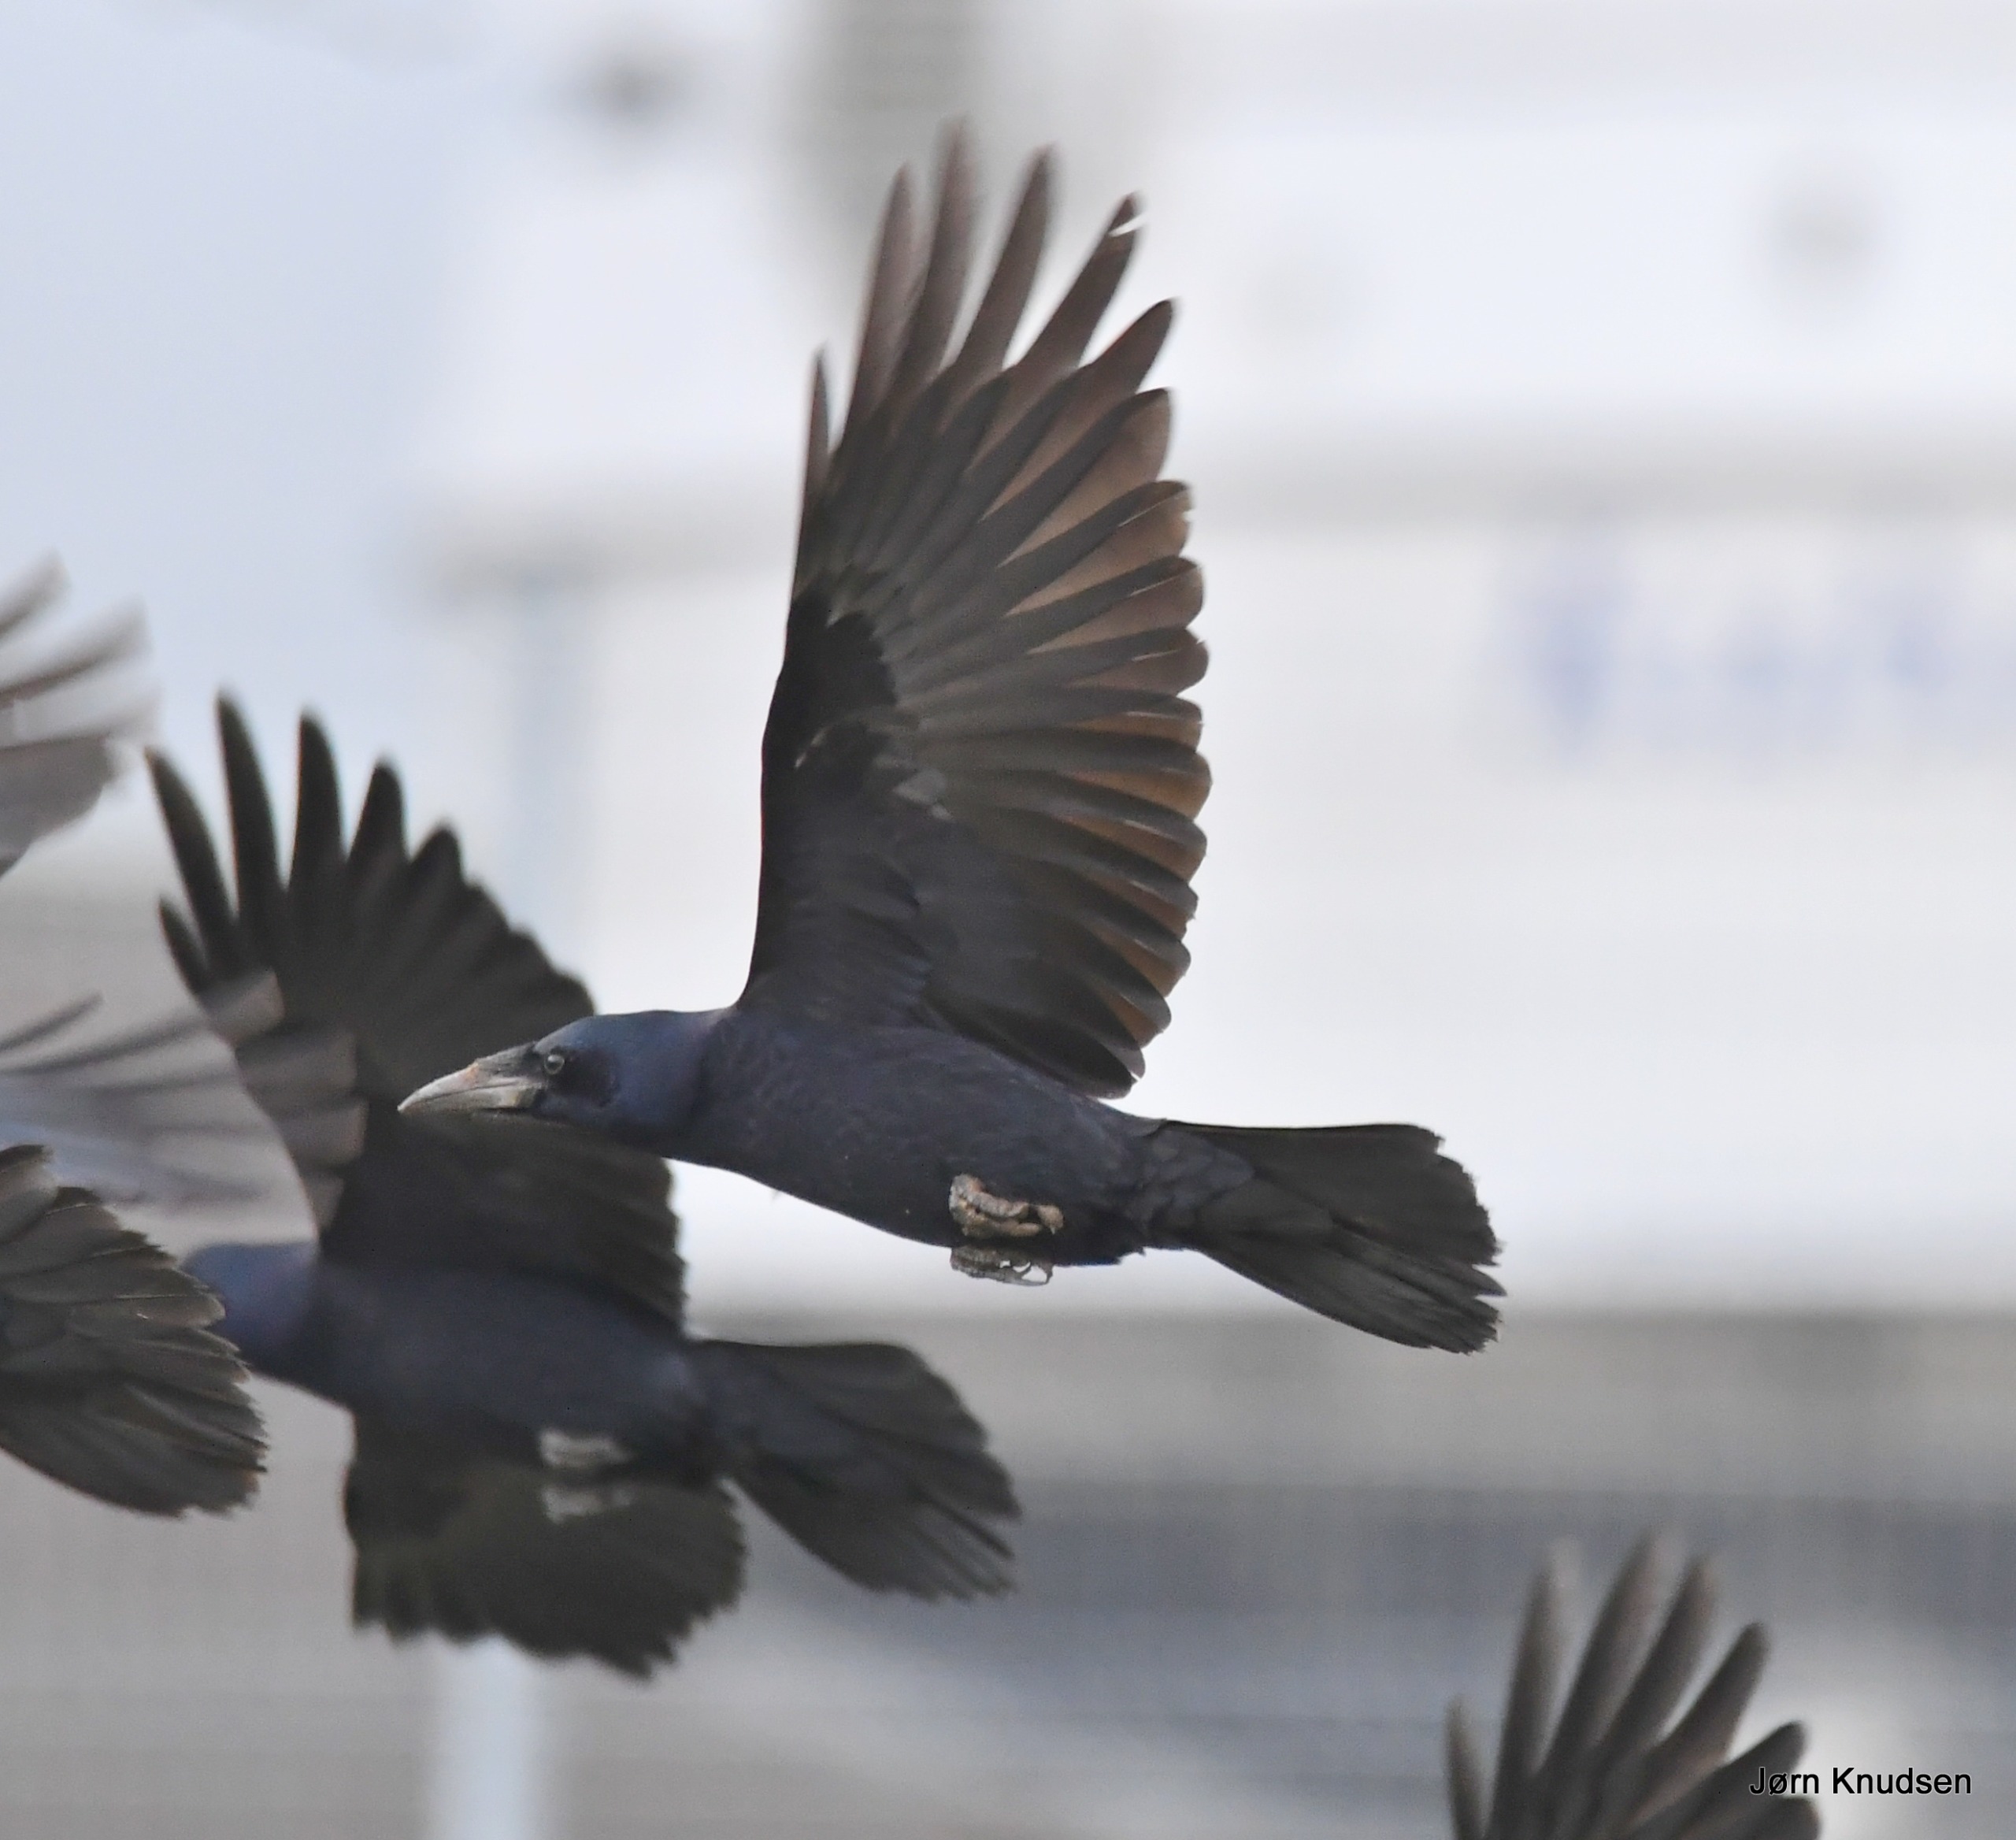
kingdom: Animalia
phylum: Chordata
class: Aves
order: Passeriformes
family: Corvidae
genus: Corvus
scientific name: Corvus frugilegus
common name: Råge
